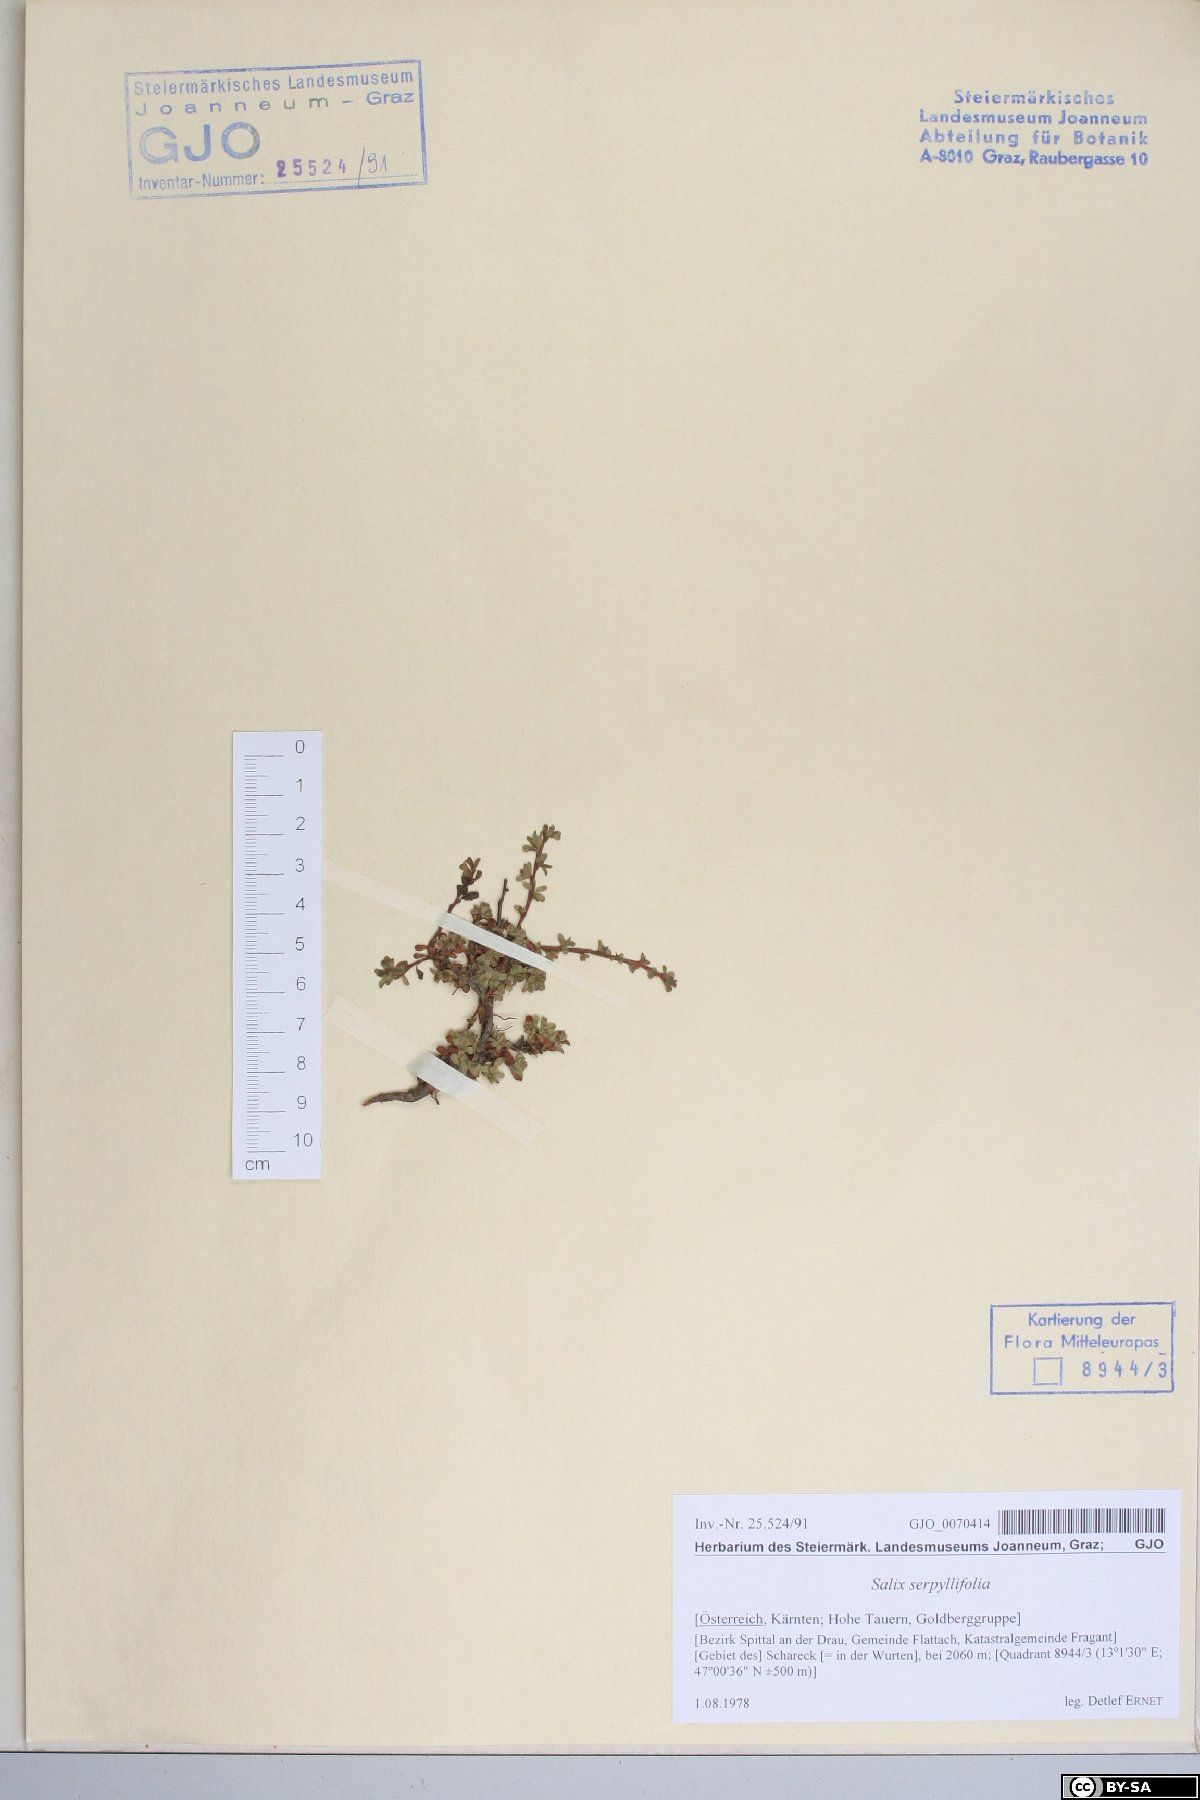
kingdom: Plantae
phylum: Tracheophyta
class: Magnoliopsida
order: Malpighiales
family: Salicaceae
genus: Salix
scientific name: Salix serpillifolia
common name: Thyme-leaf willow
